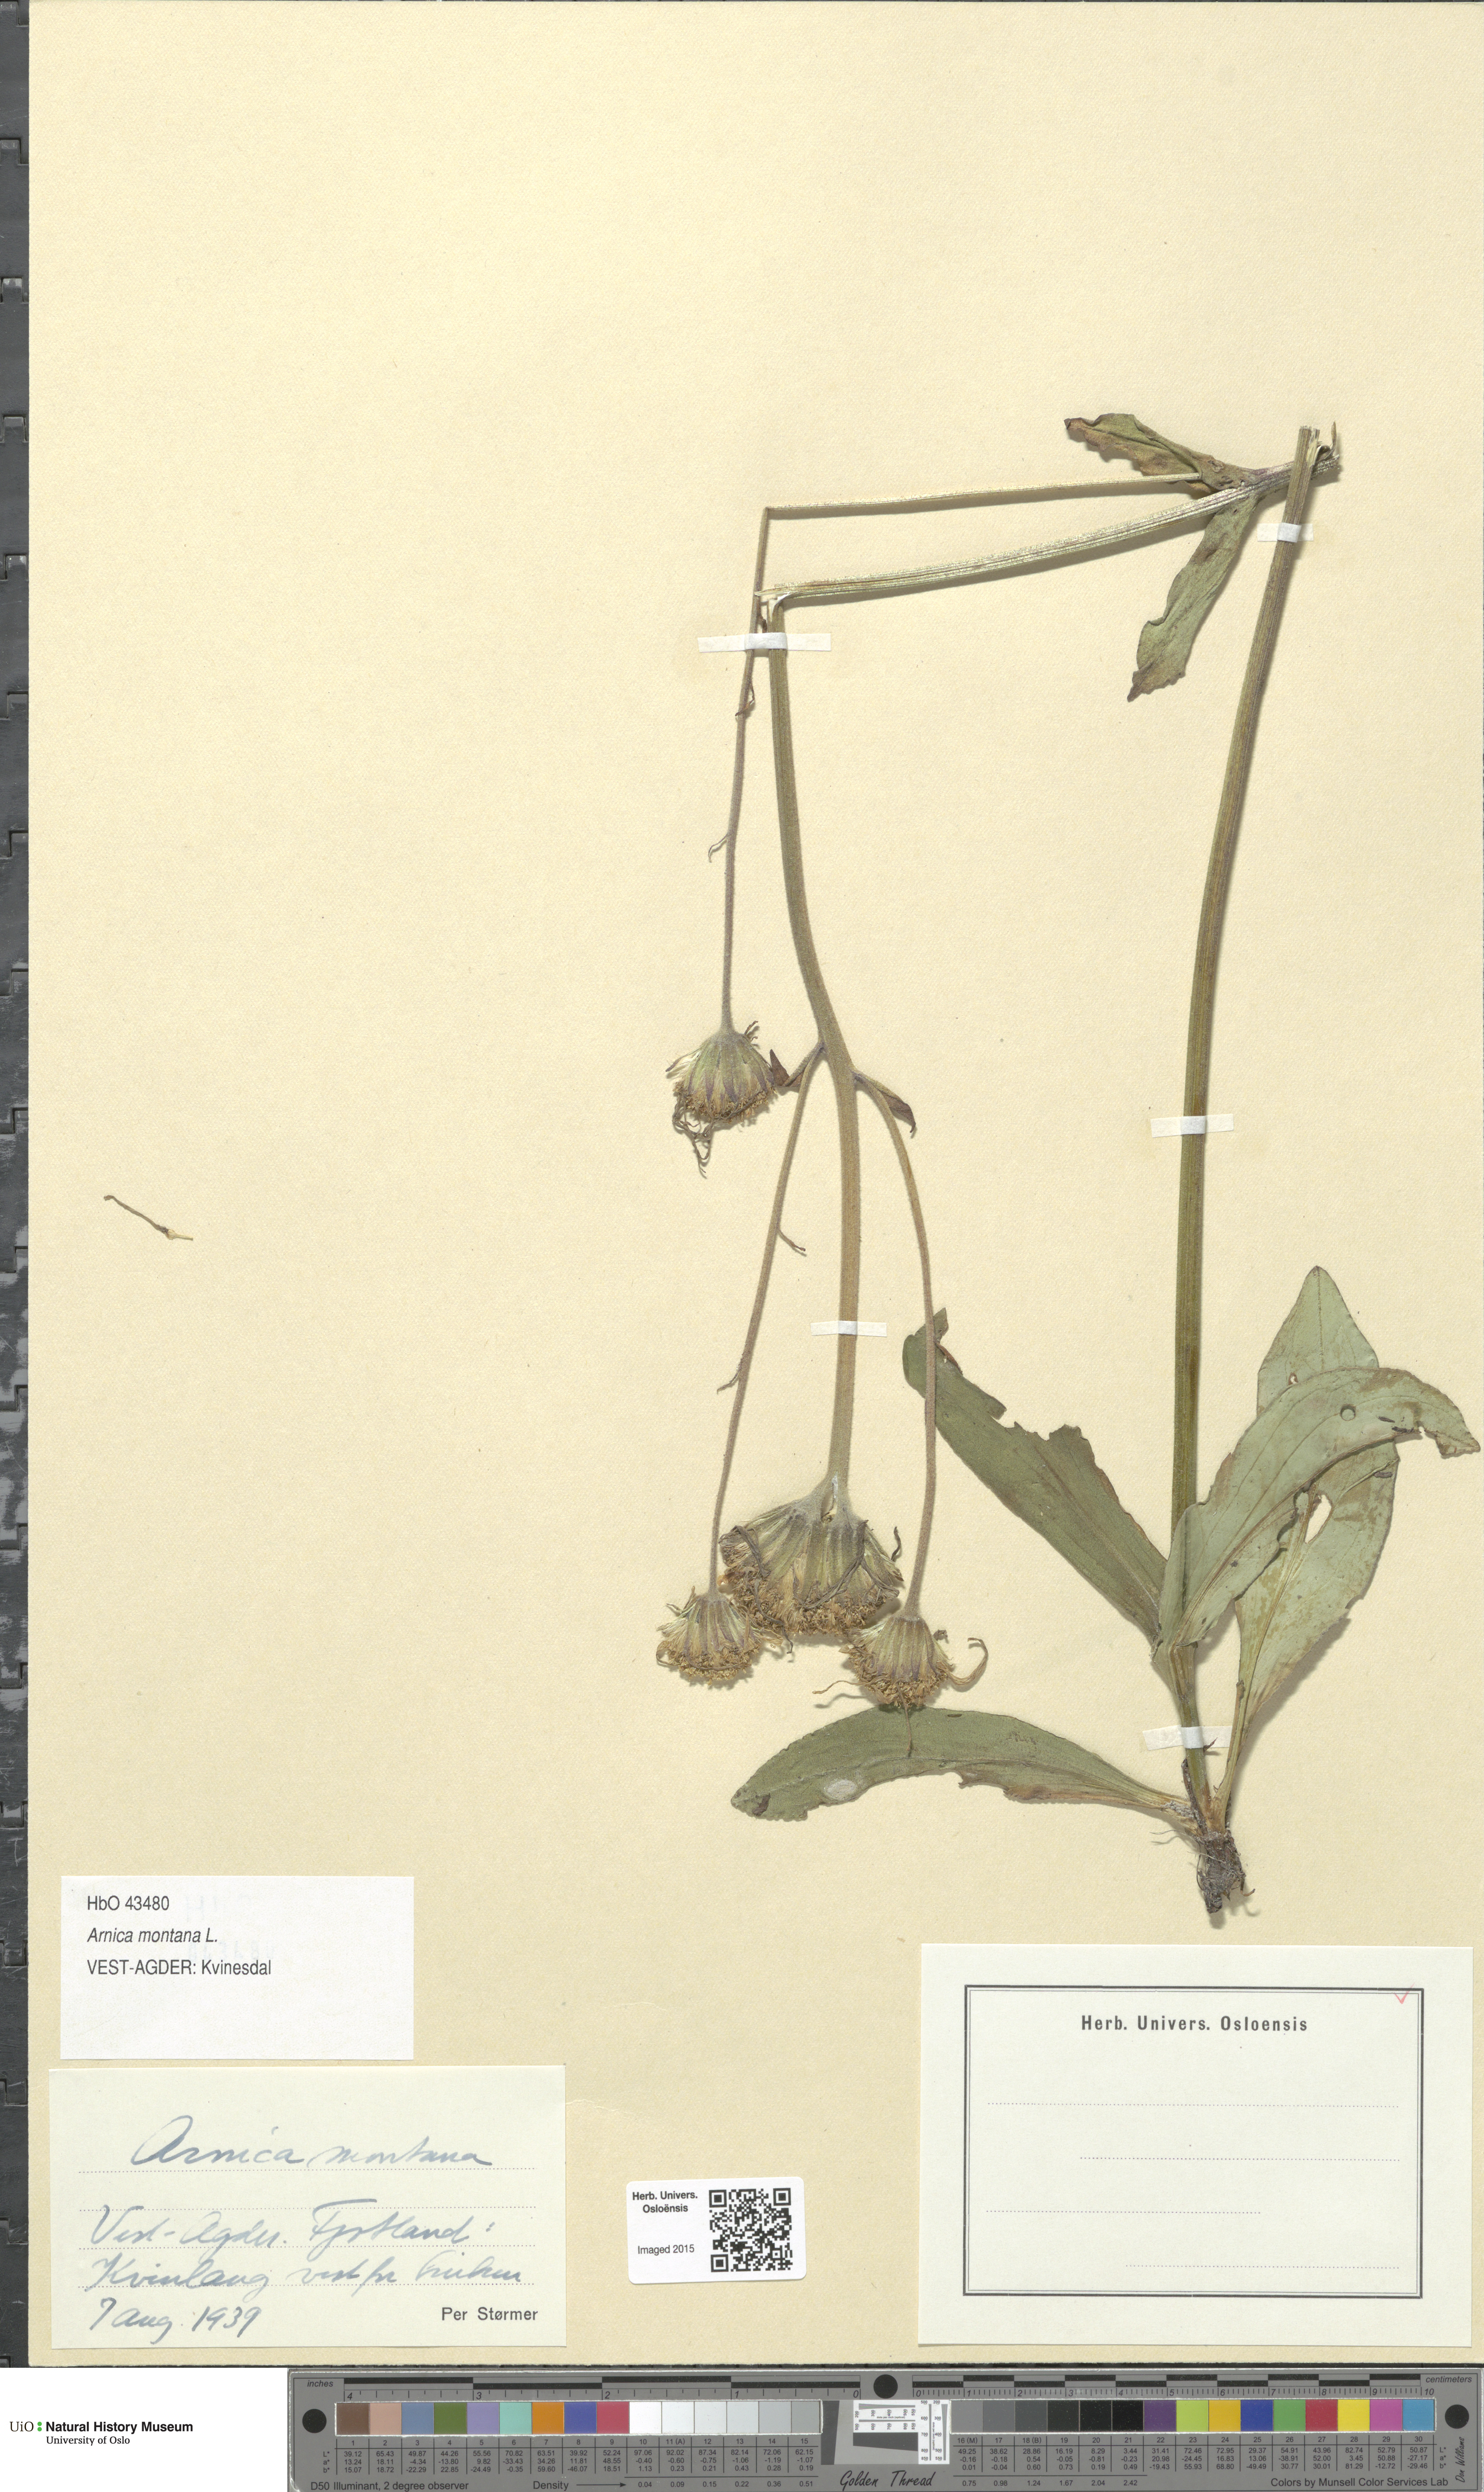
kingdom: Plantae
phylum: Tracheophyta
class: Magnoliopsida
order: Asterales
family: Asteraceae
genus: Arnica
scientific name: Arnica montana
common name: Leopard's bane
